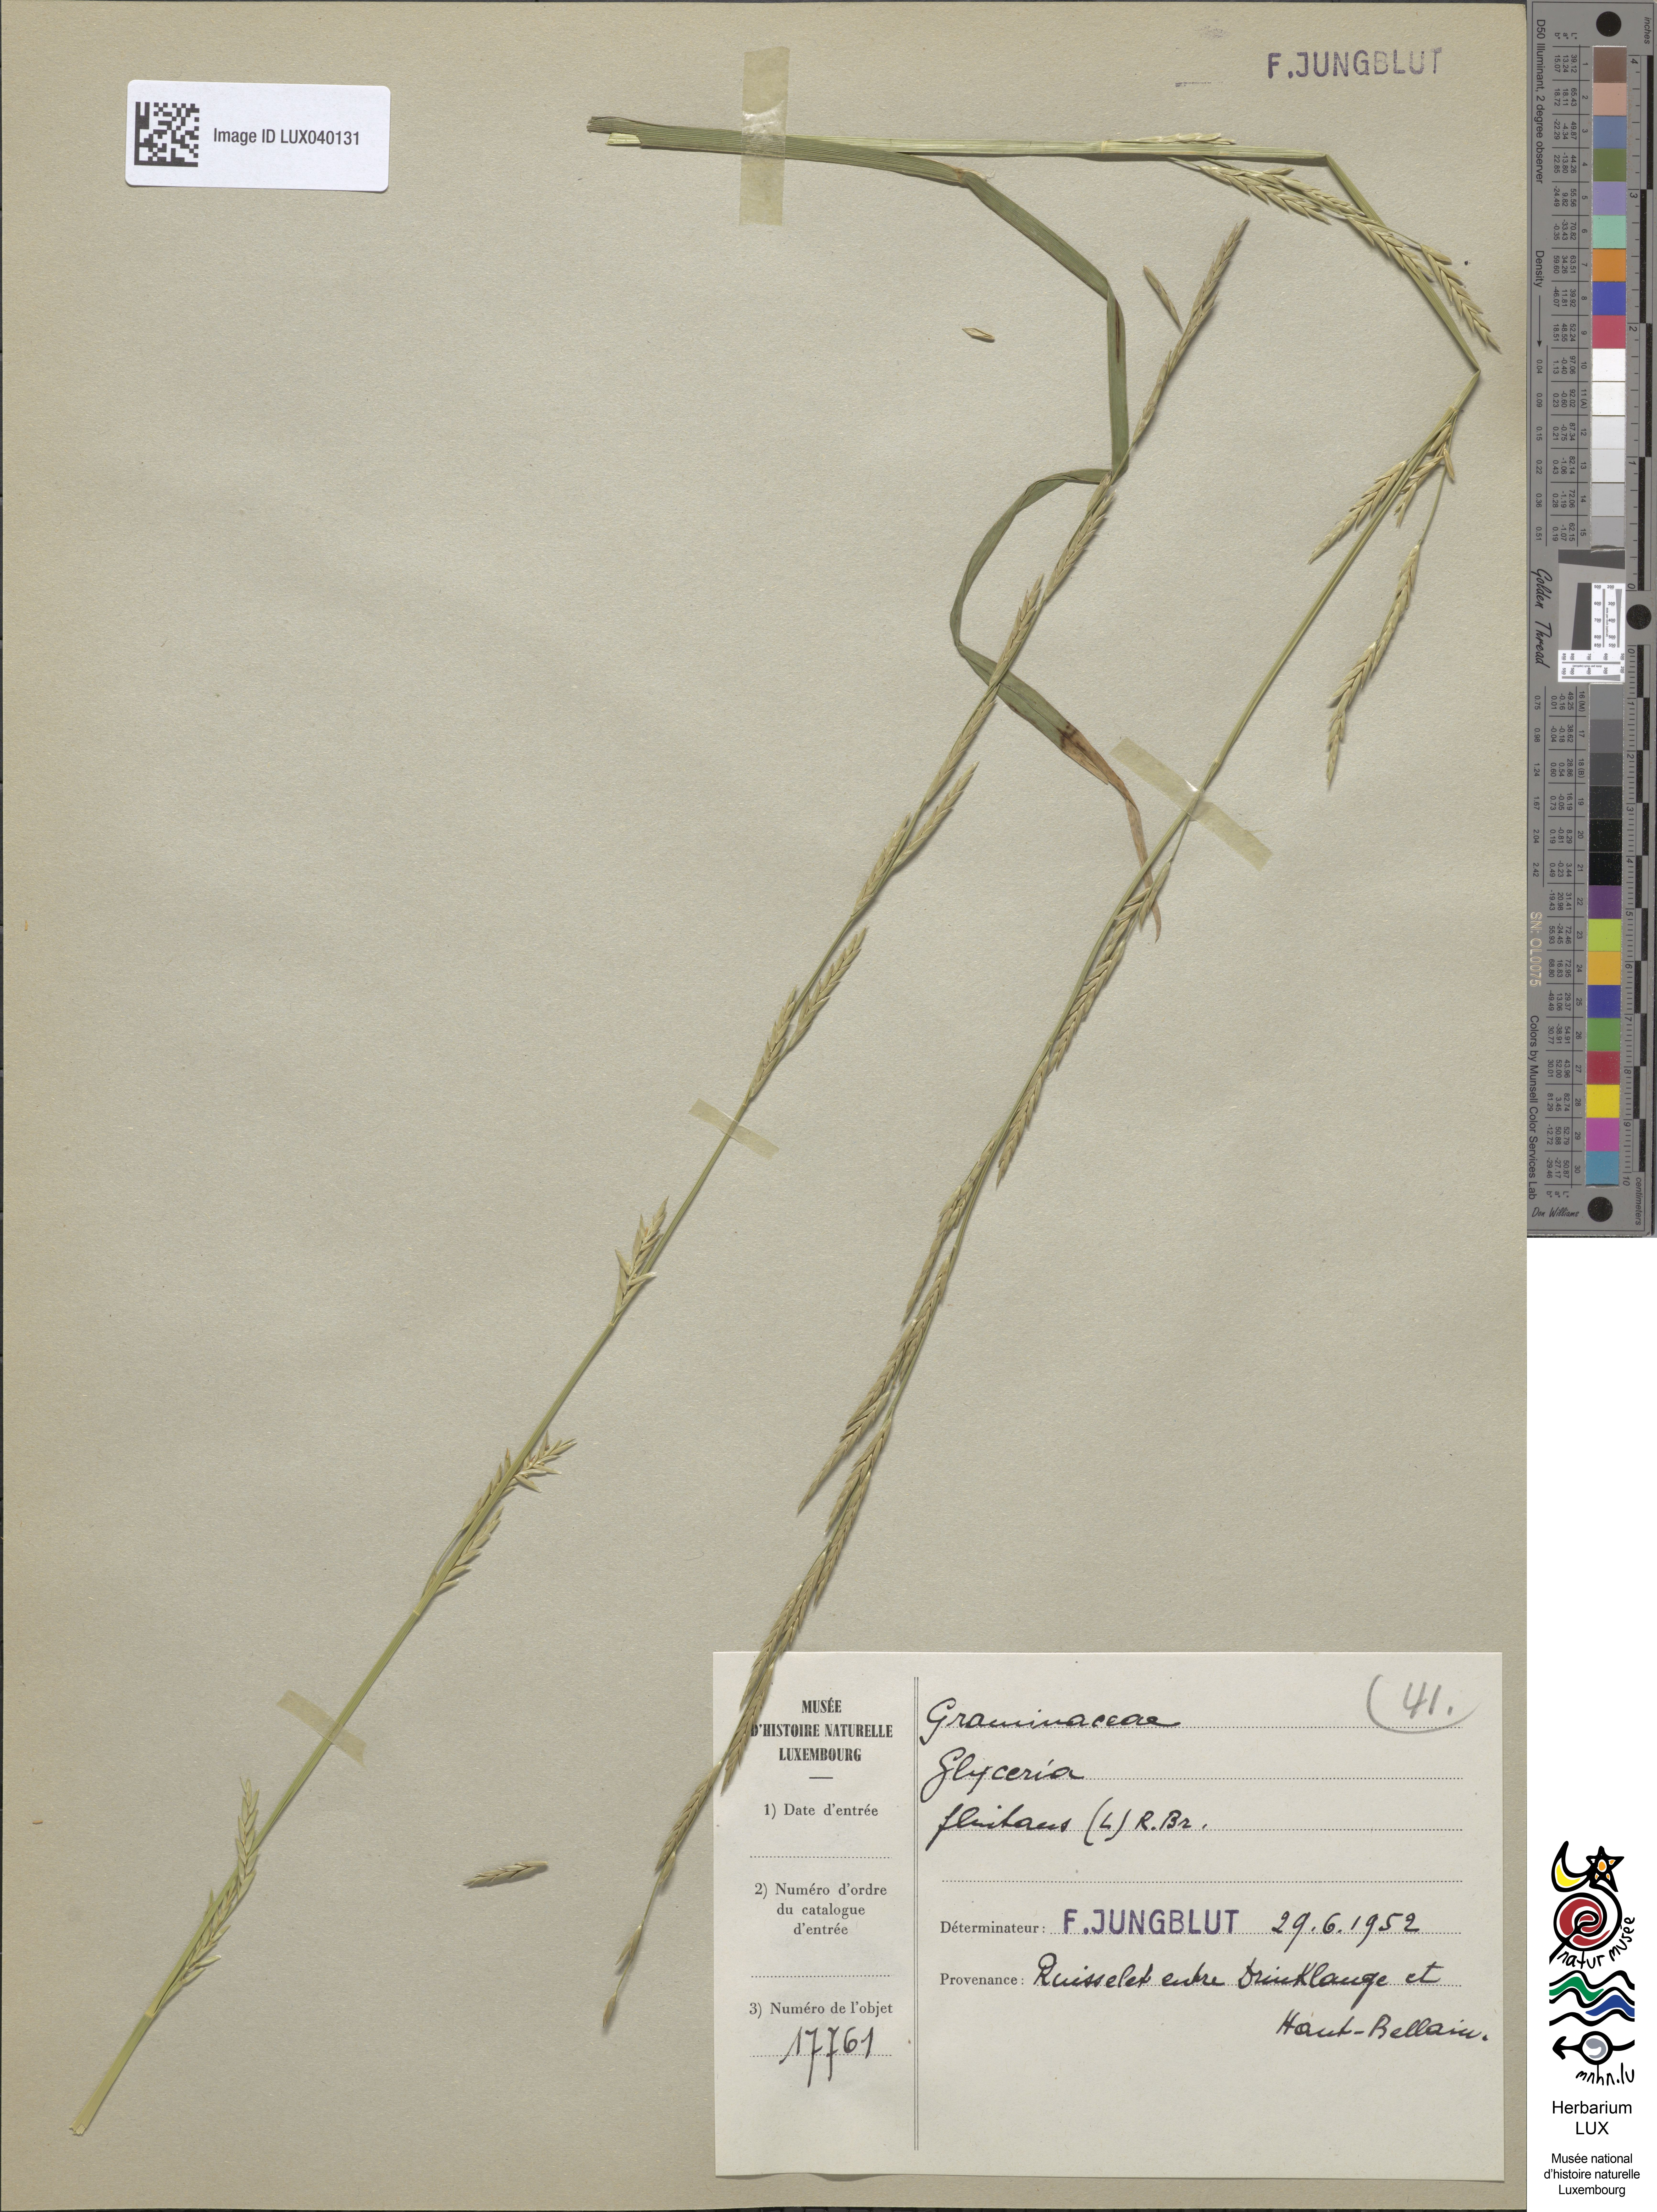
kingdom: Plantae
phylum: Tracheophyta
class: Liliopsida
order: Poales
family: Poaceae
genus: Glyceria
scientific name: Glyceria fluitans
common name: Floating sweet-grass
